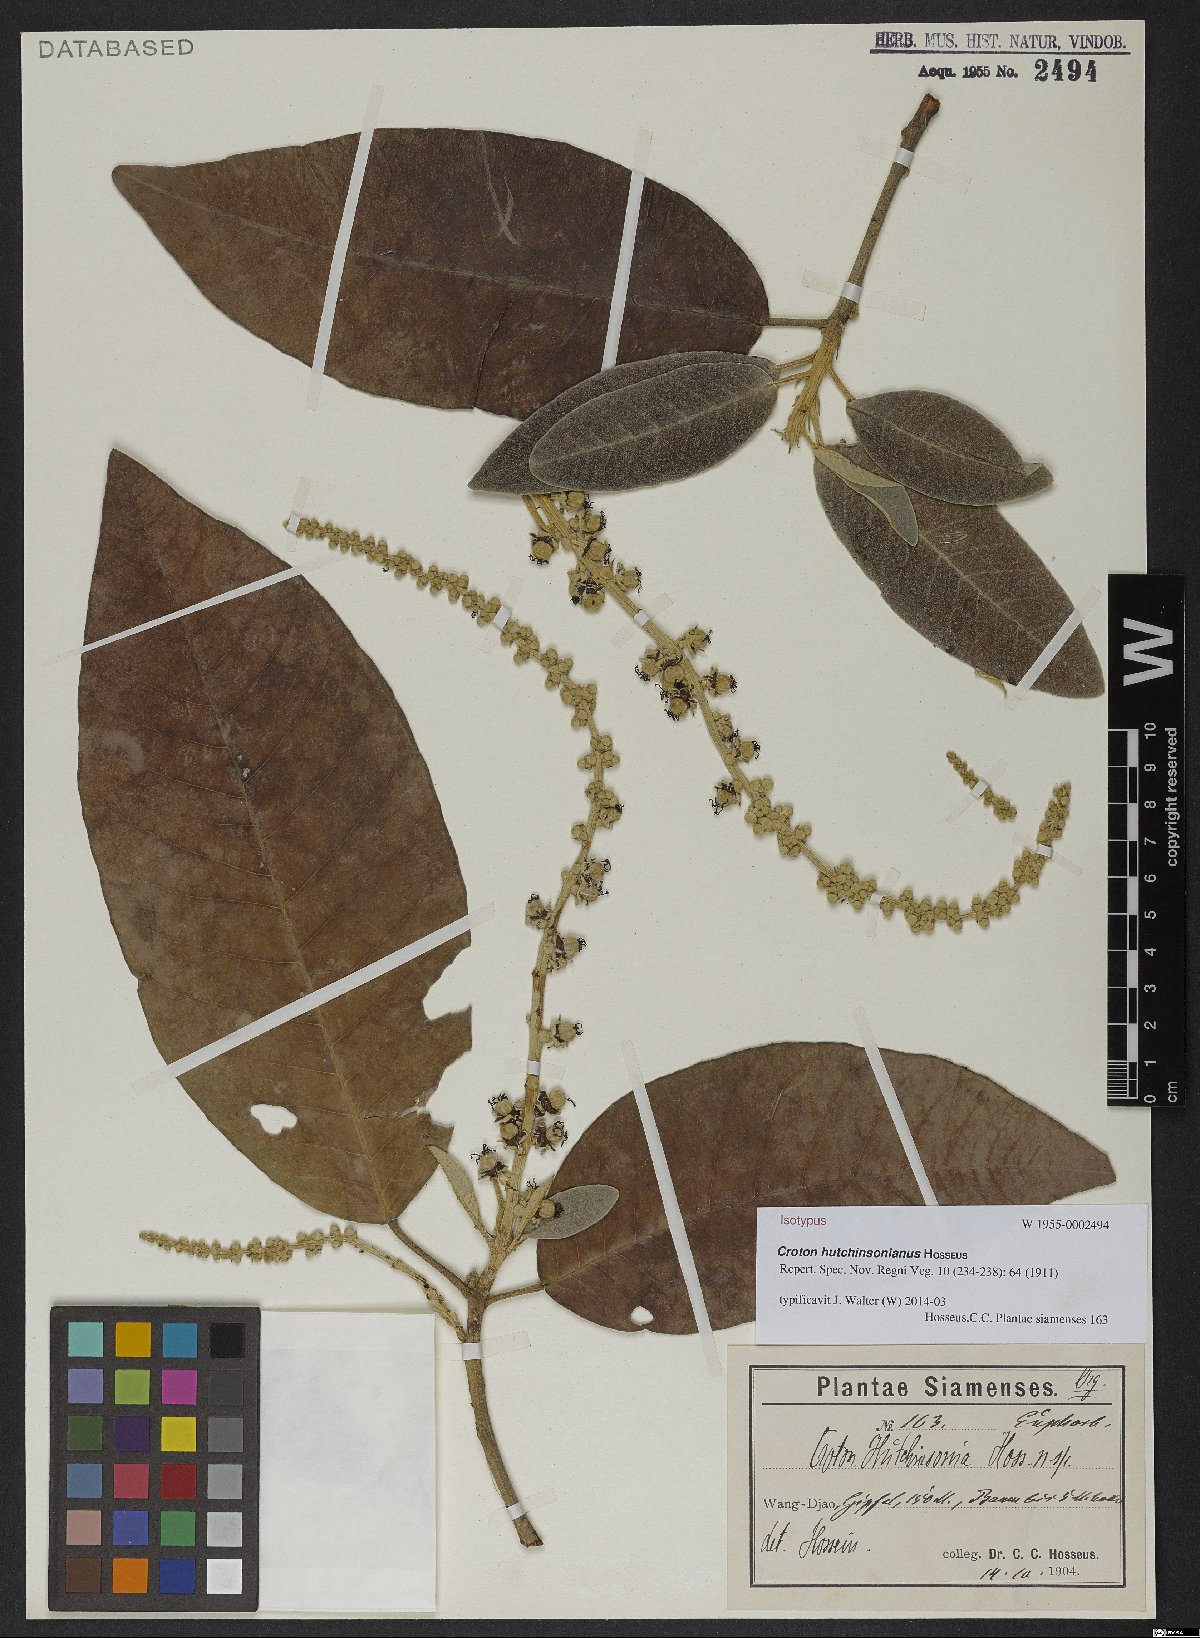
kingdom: Plantae
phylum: Tracheophyta
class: Magnoliopsida
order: Malpighiales
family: Euphorbiaceae
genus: Croton
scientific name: Croton hutchinsonianus
